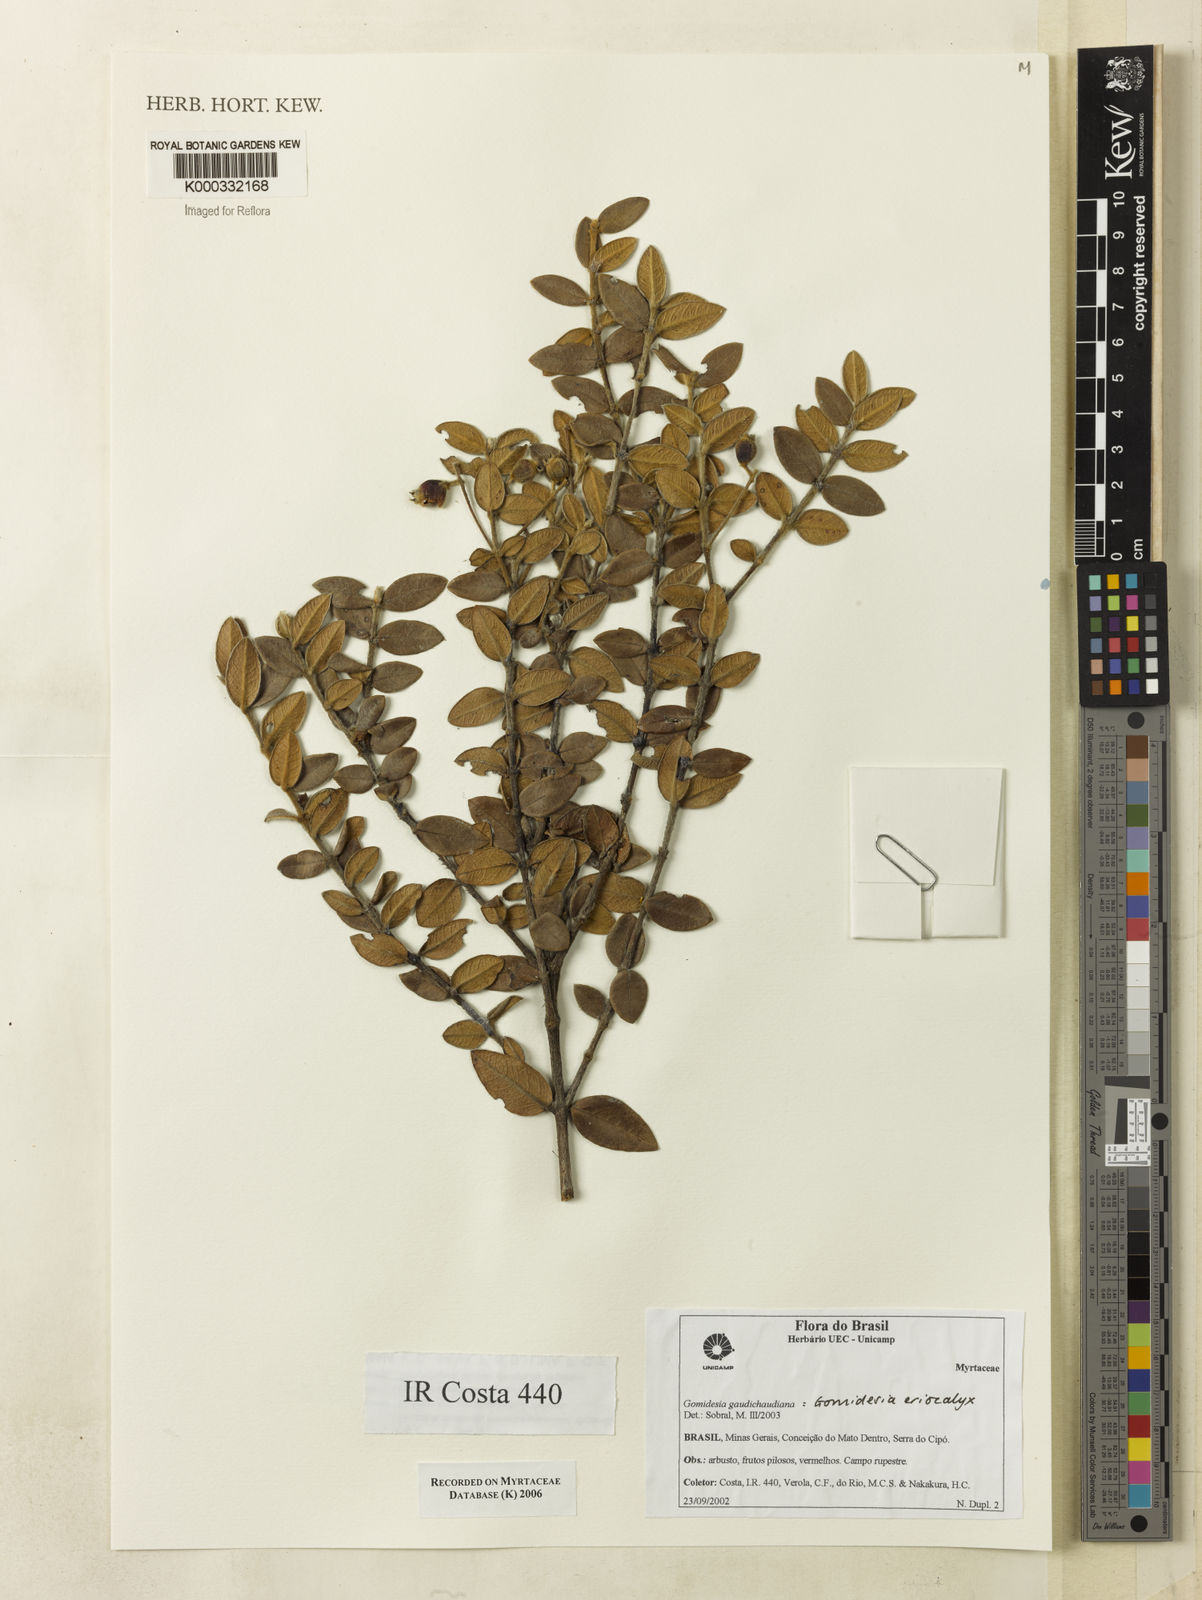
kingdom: Plantae
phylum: Tracheophyta
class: Magnoliopsida
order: Myrtales
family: Myrtaceae
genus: Myrcia
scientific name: Myrcia eriocalyx
